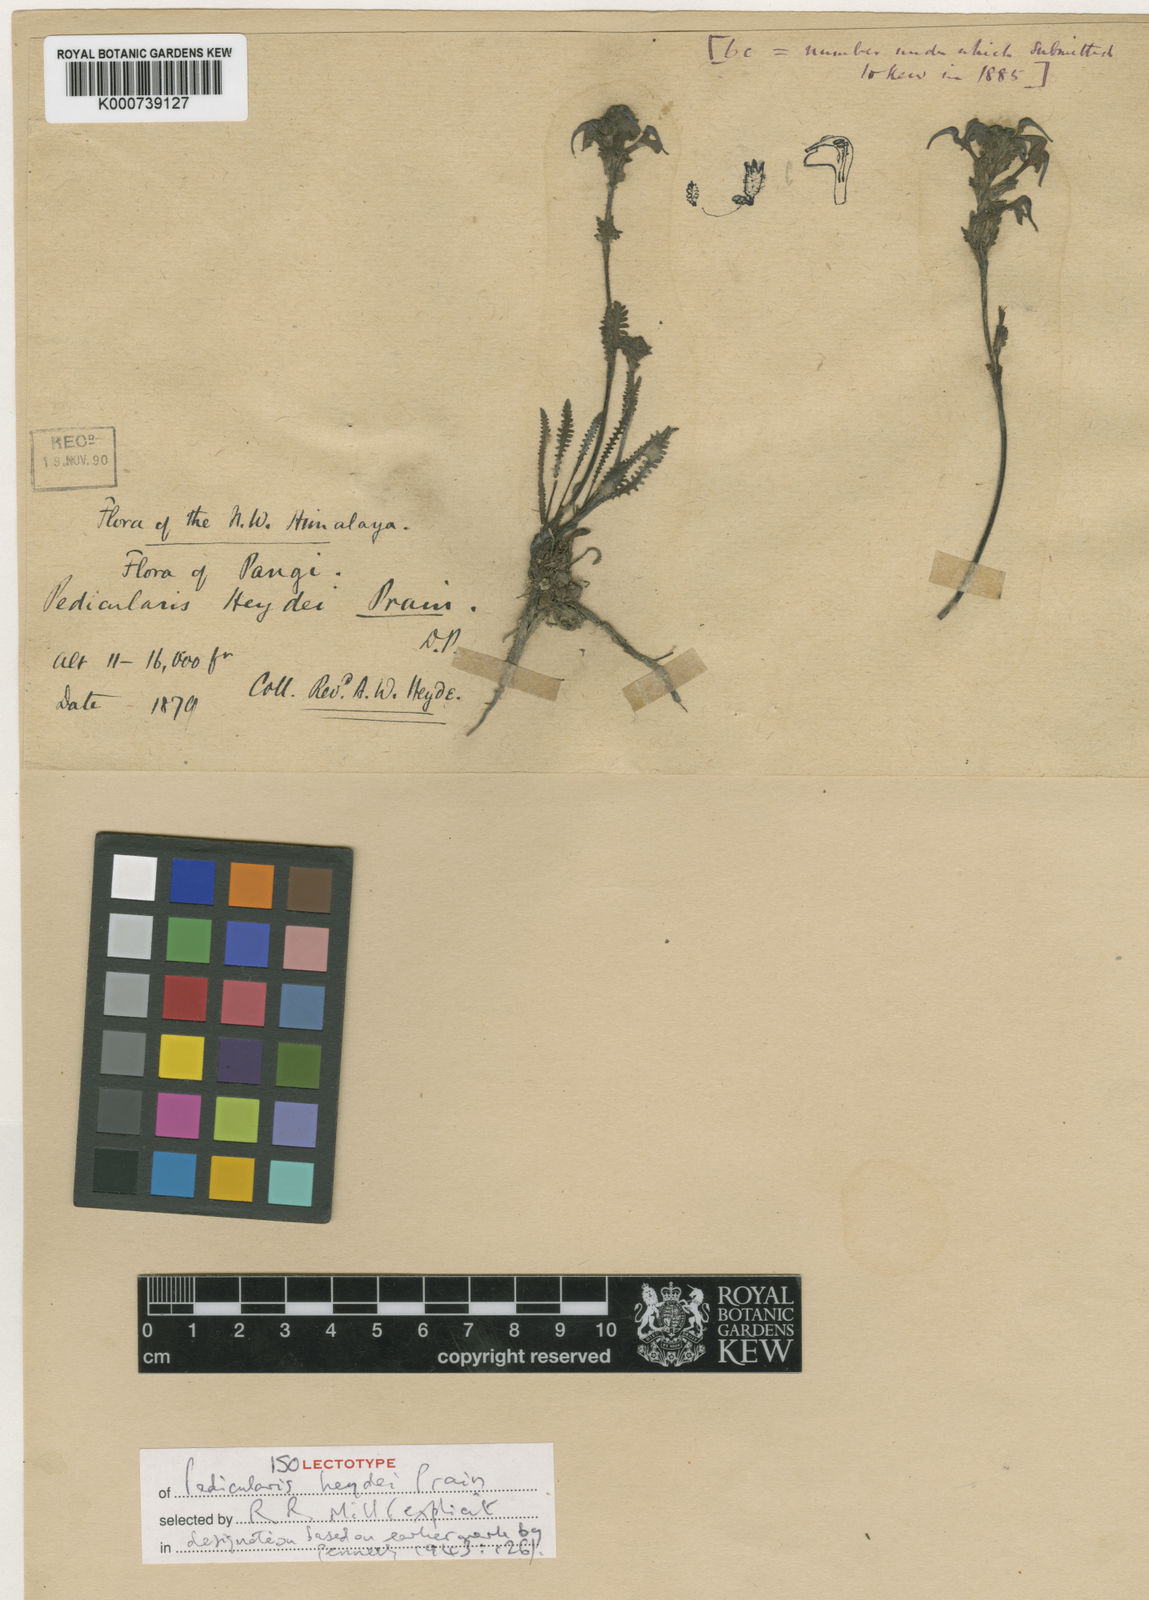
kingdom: Plantae
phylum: Tracheophyta
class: Magnoliopsida
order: Lamiales
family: Orobanchaceae
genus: Pedicularis
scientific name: Pedicularis heydei
